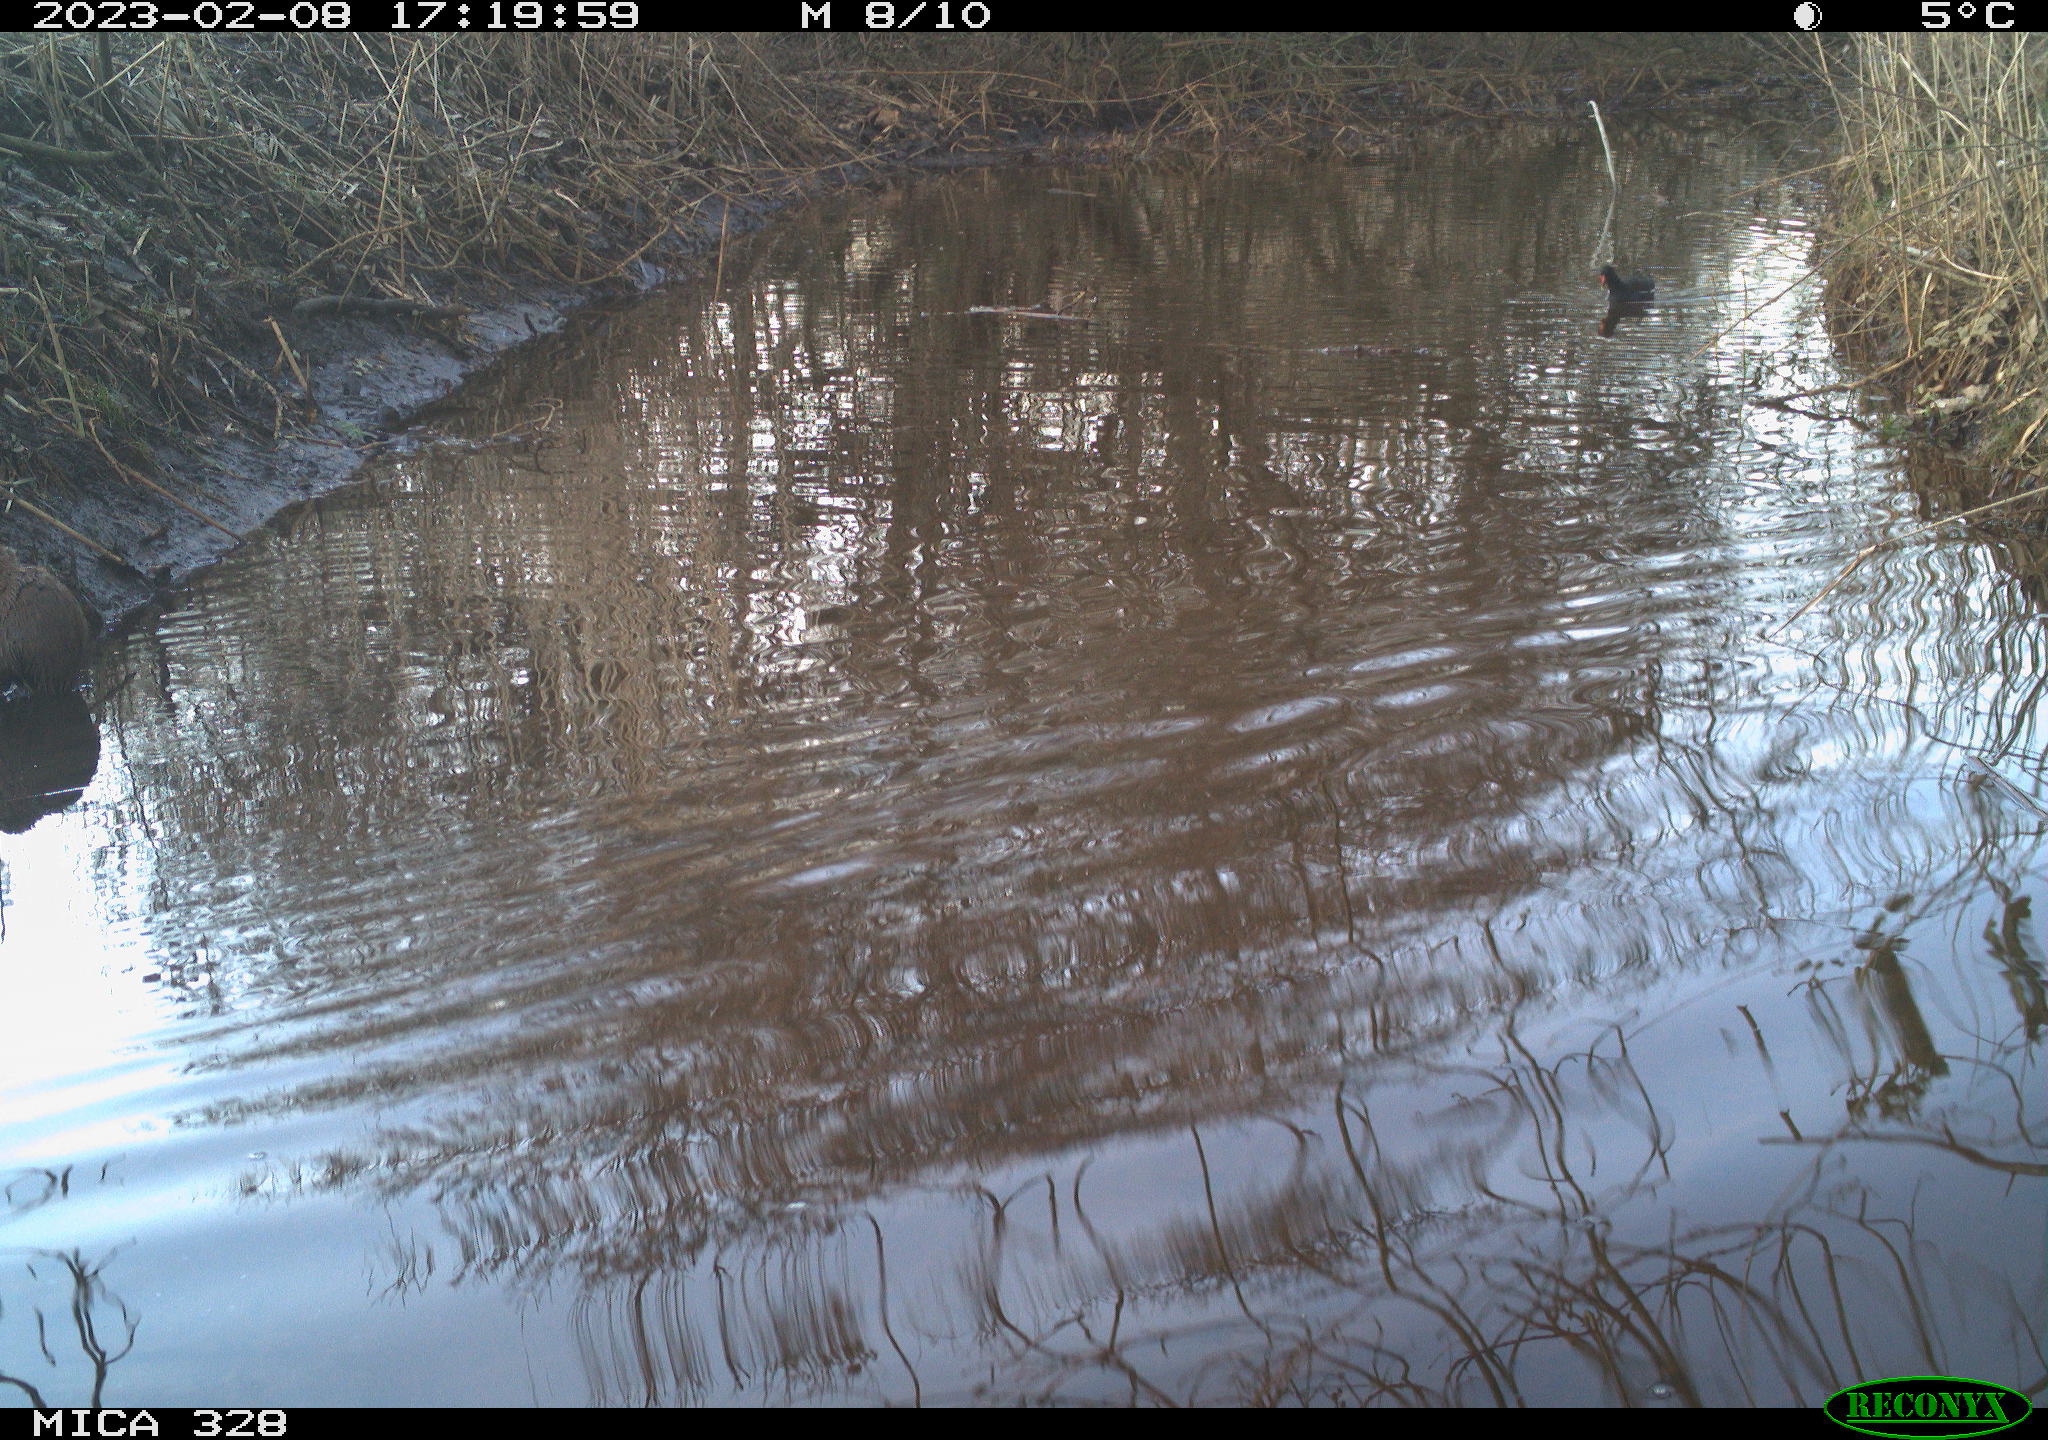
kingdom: Animalia
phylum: Chordata
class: Aves
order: Gruiformes
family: Rallidae
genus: Gallinula
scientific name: Gallinula chloropus
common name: Common moorhen
